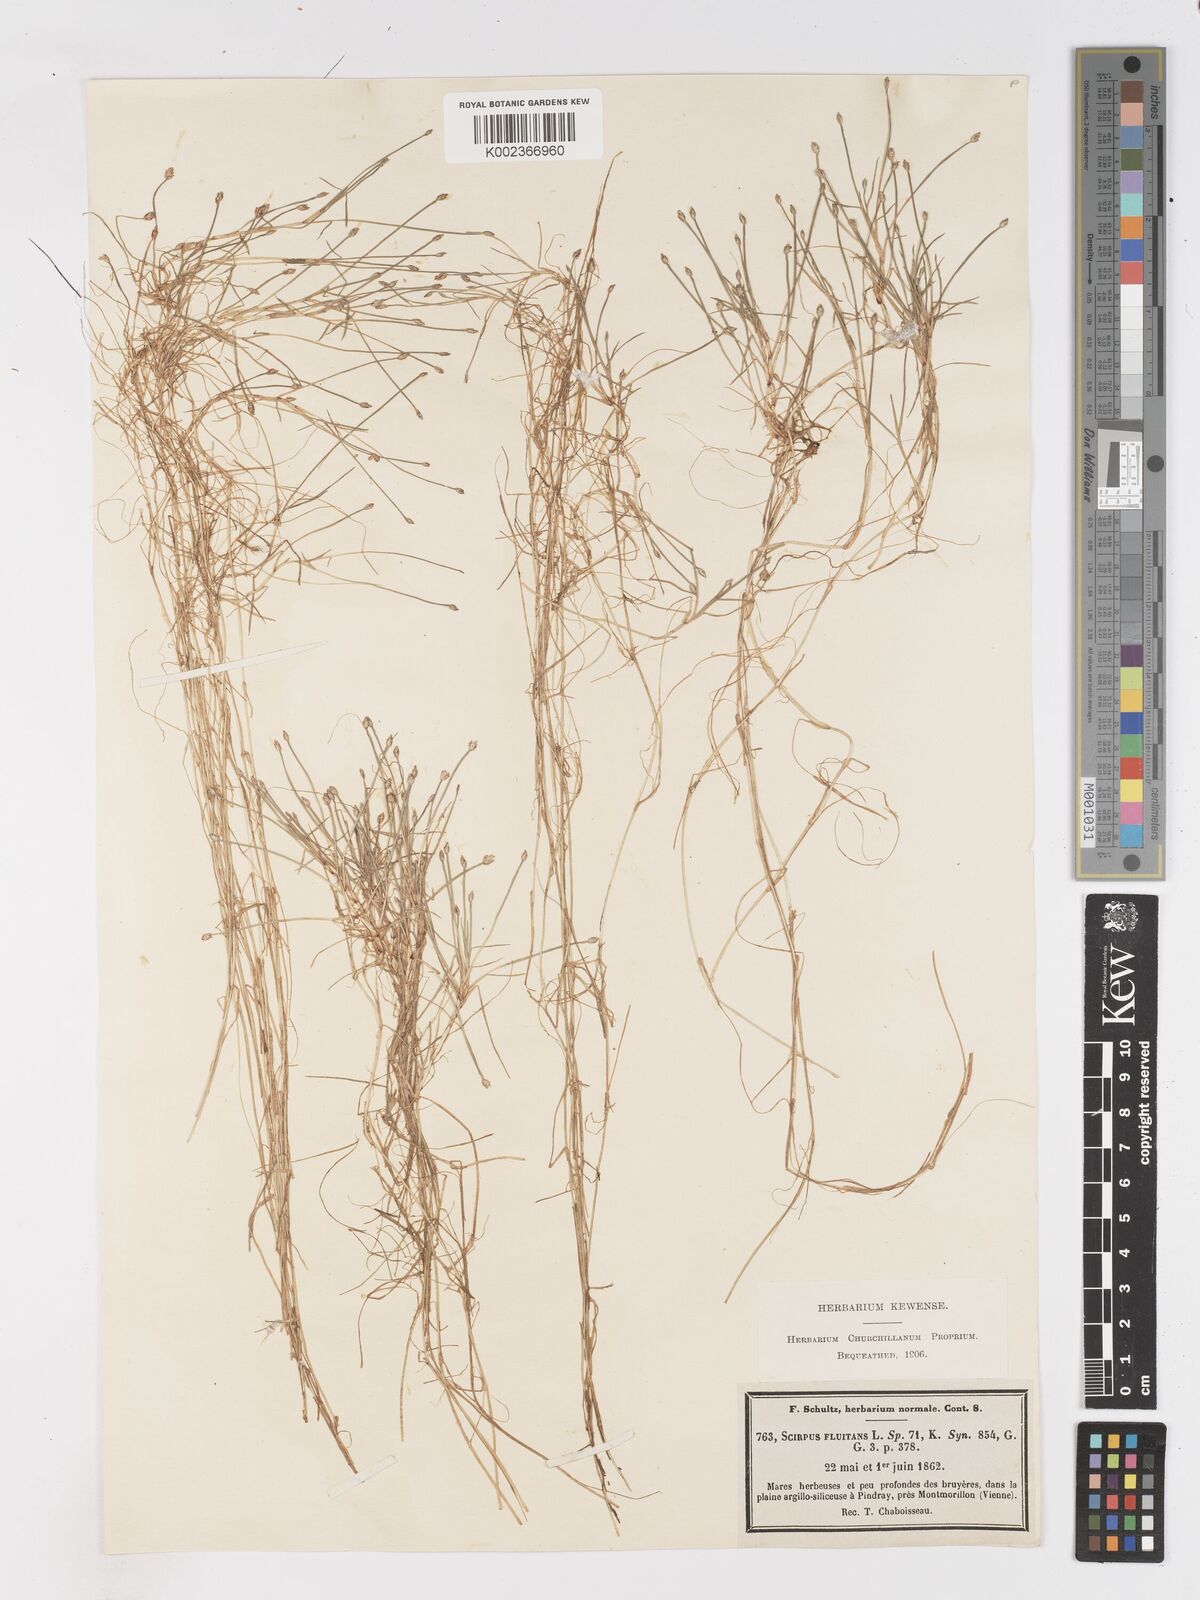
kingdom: Plantae
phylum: Tracheophyta
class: Liliopsida
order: Poales
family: Cyperaceae
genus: Isolepis
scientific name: Isolepis fluitans
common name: Floating club-rush
